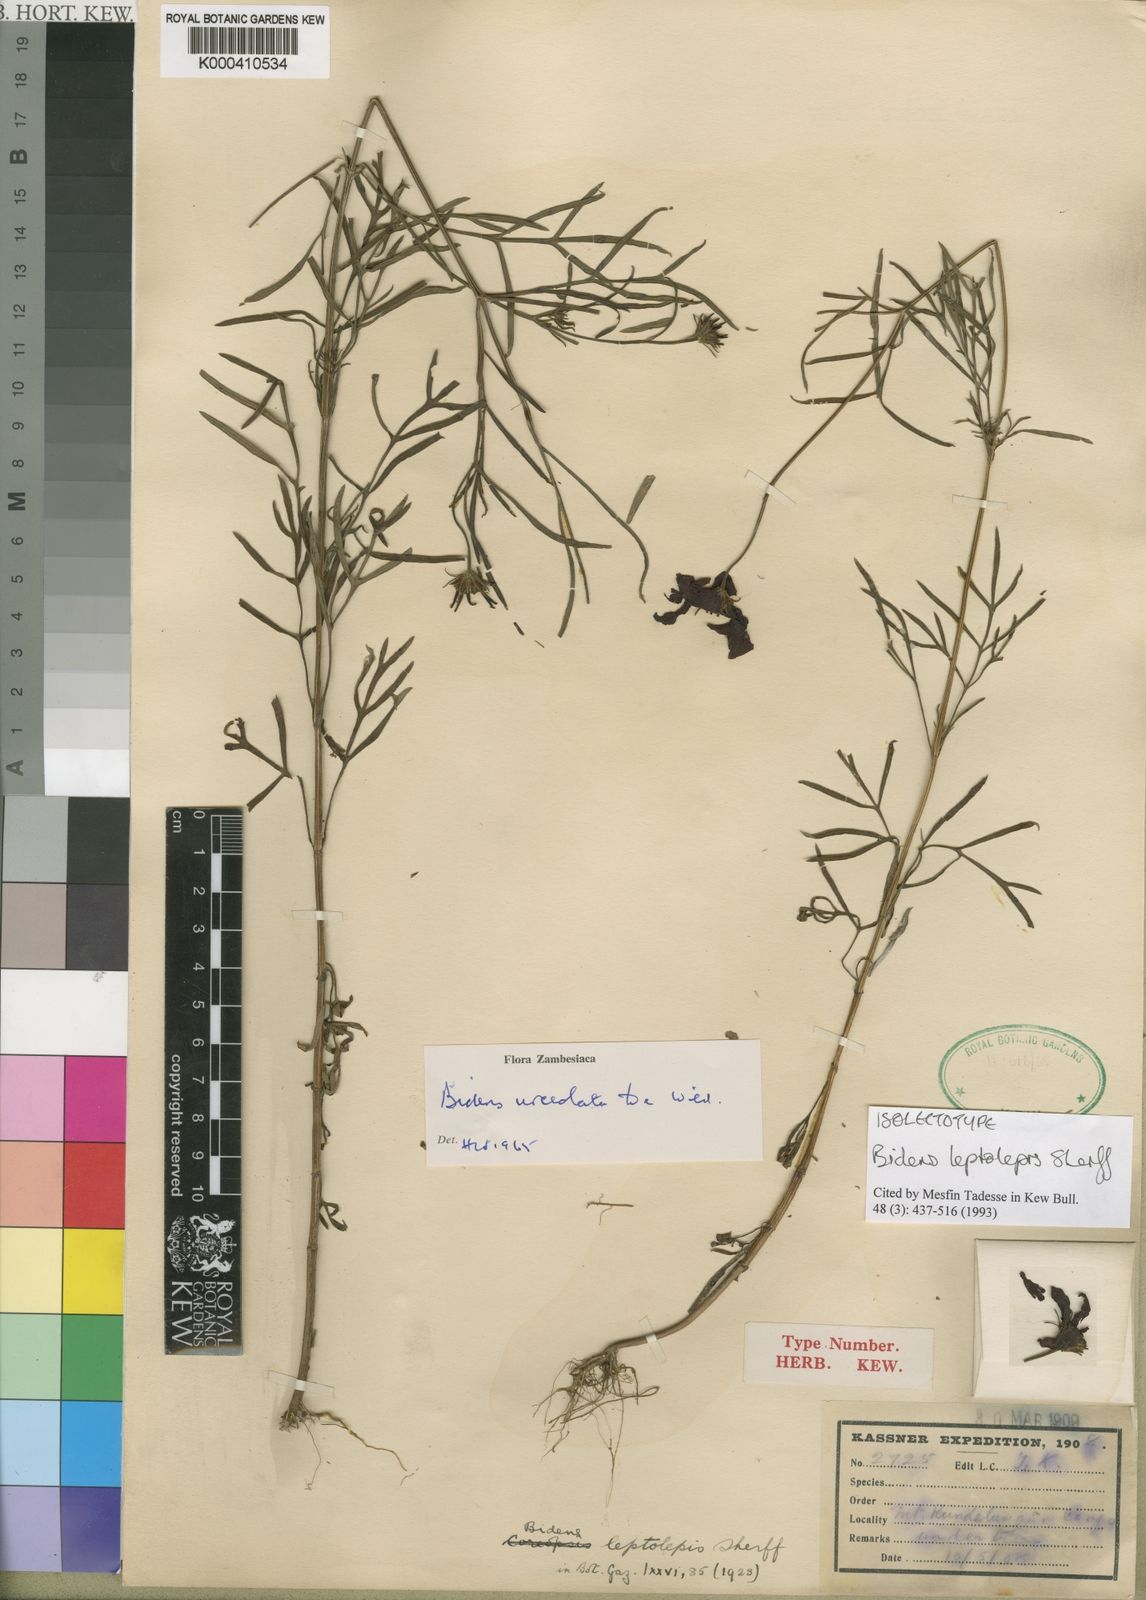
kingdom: Plantae
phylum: Tracheophyta
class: Magnoliopsida
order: Asterales
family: Asteraceae
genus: Bidens
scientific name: Bidens urceolata
